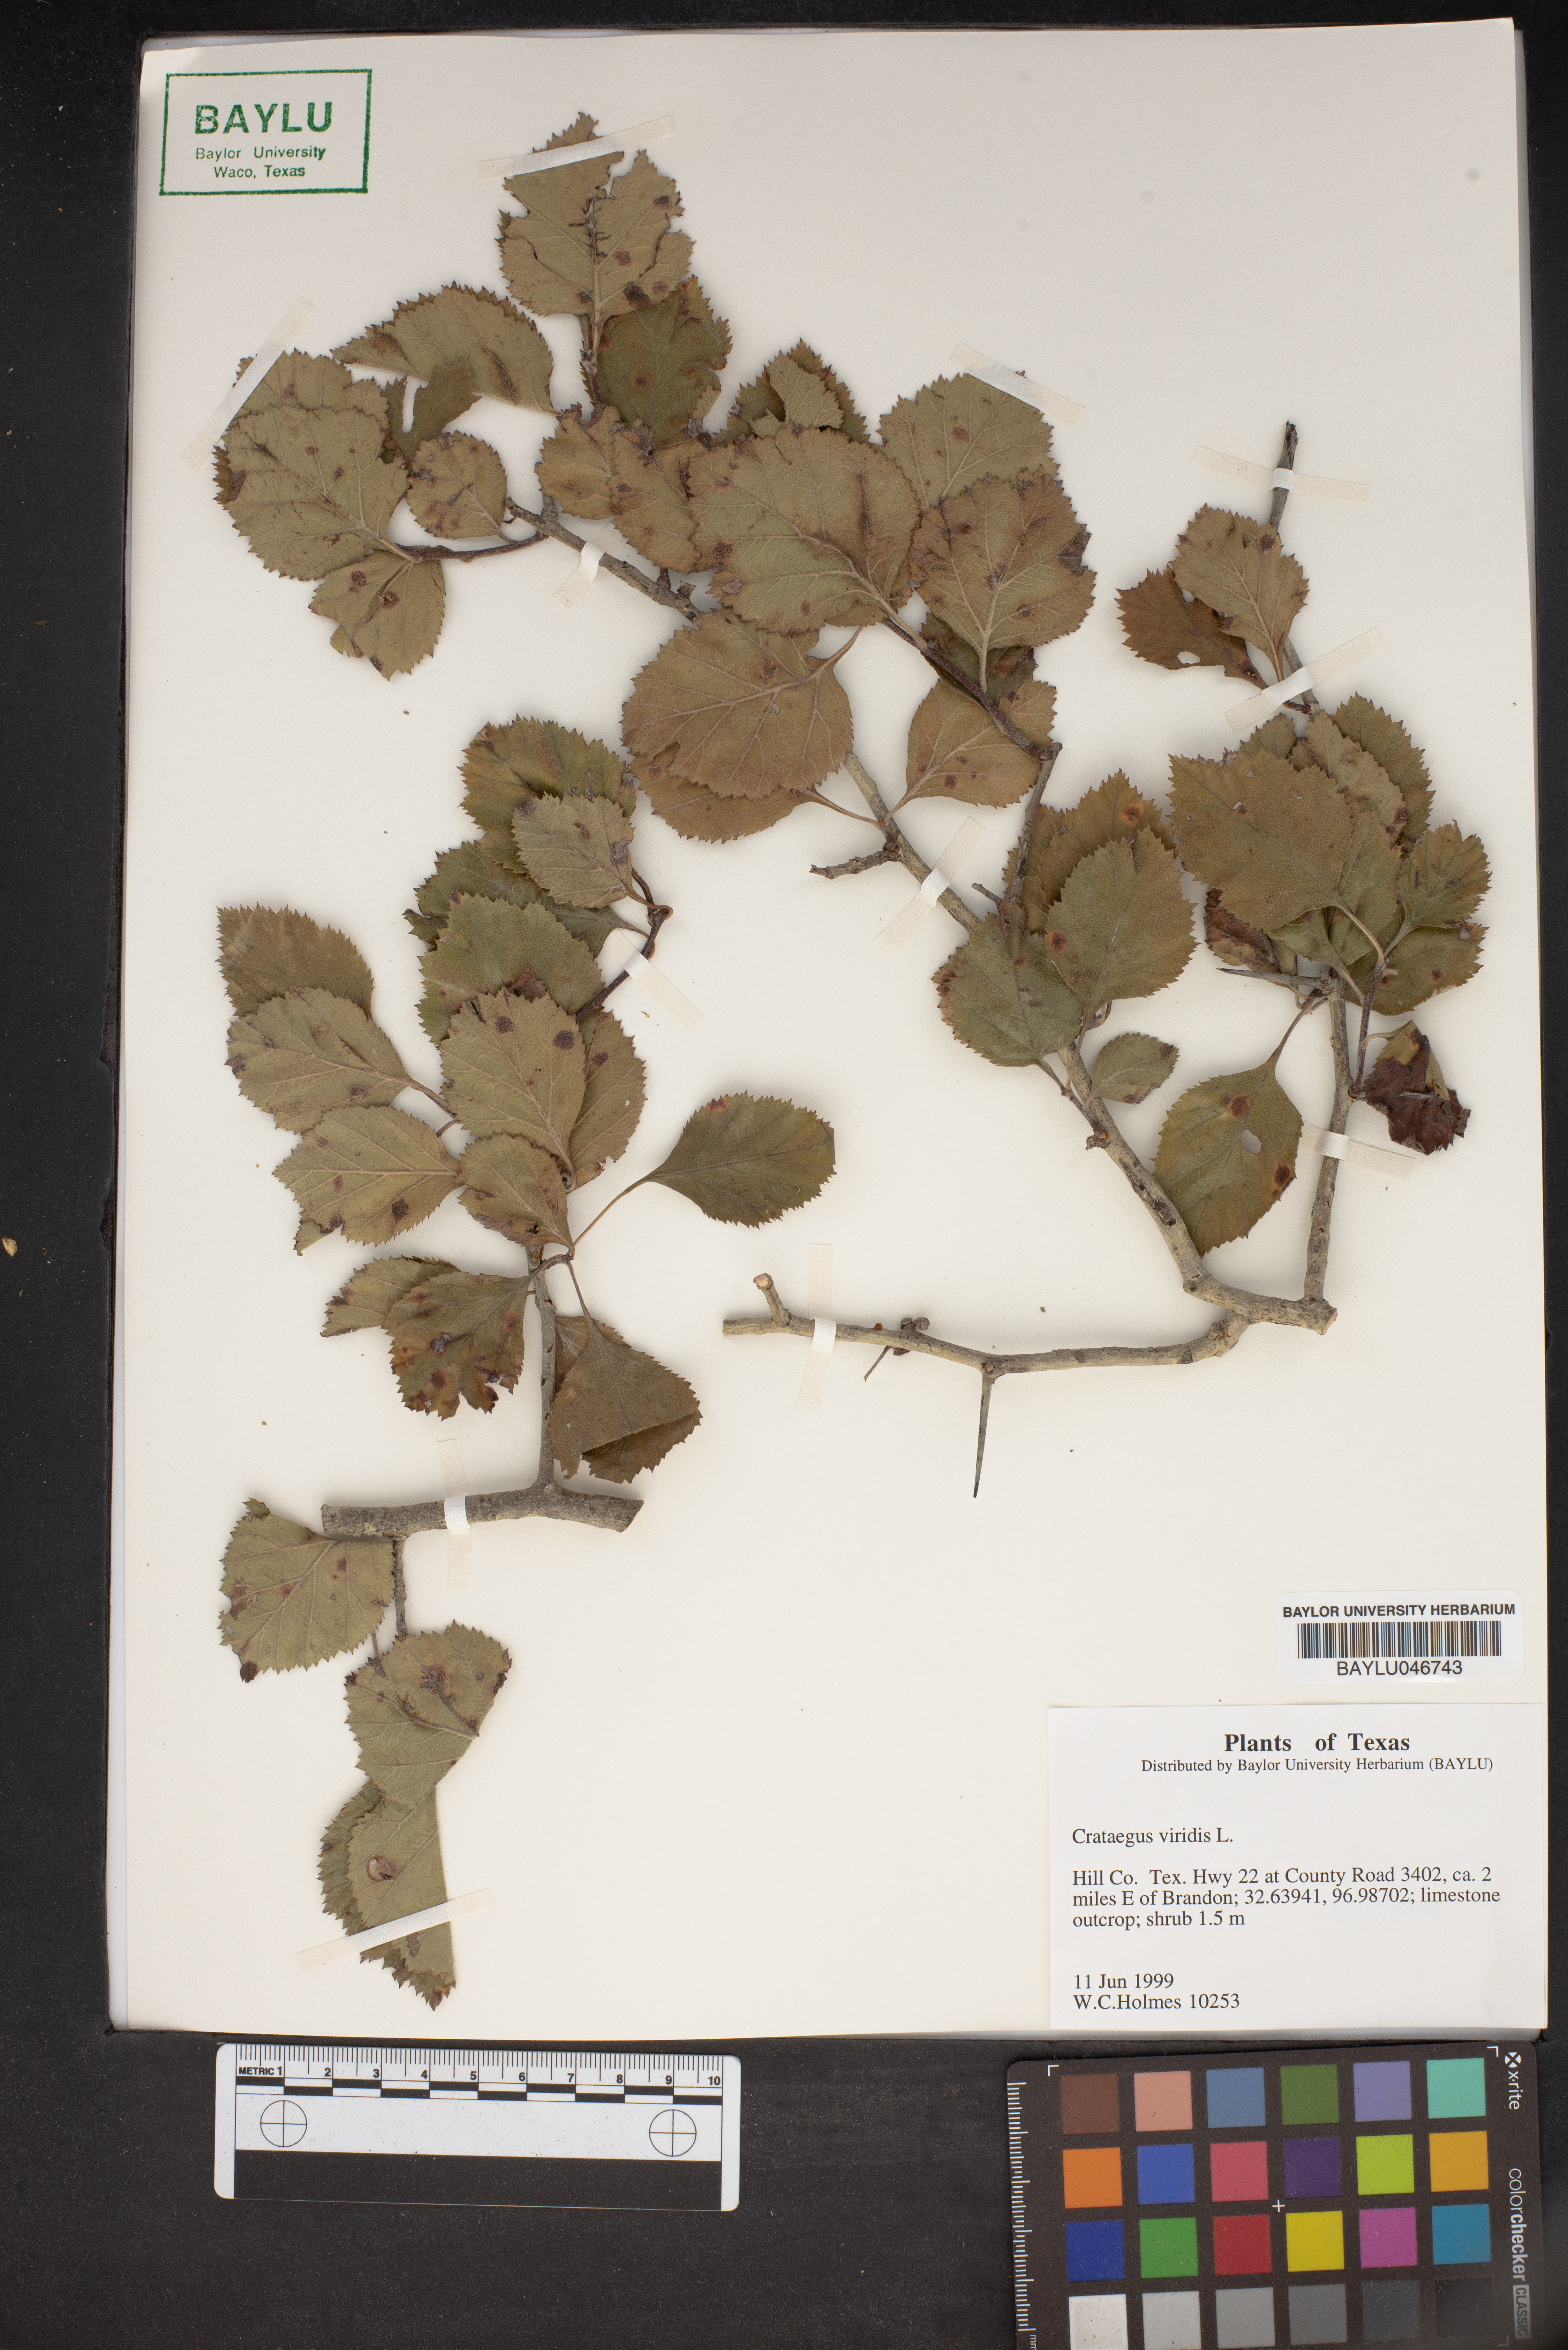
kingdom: Plantae
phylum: Tracheophyta
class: Magnoliopsida
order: Rosales
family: Rosaceae
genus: Crataegus
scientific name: Crataegus viridis
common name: Southernthorn
